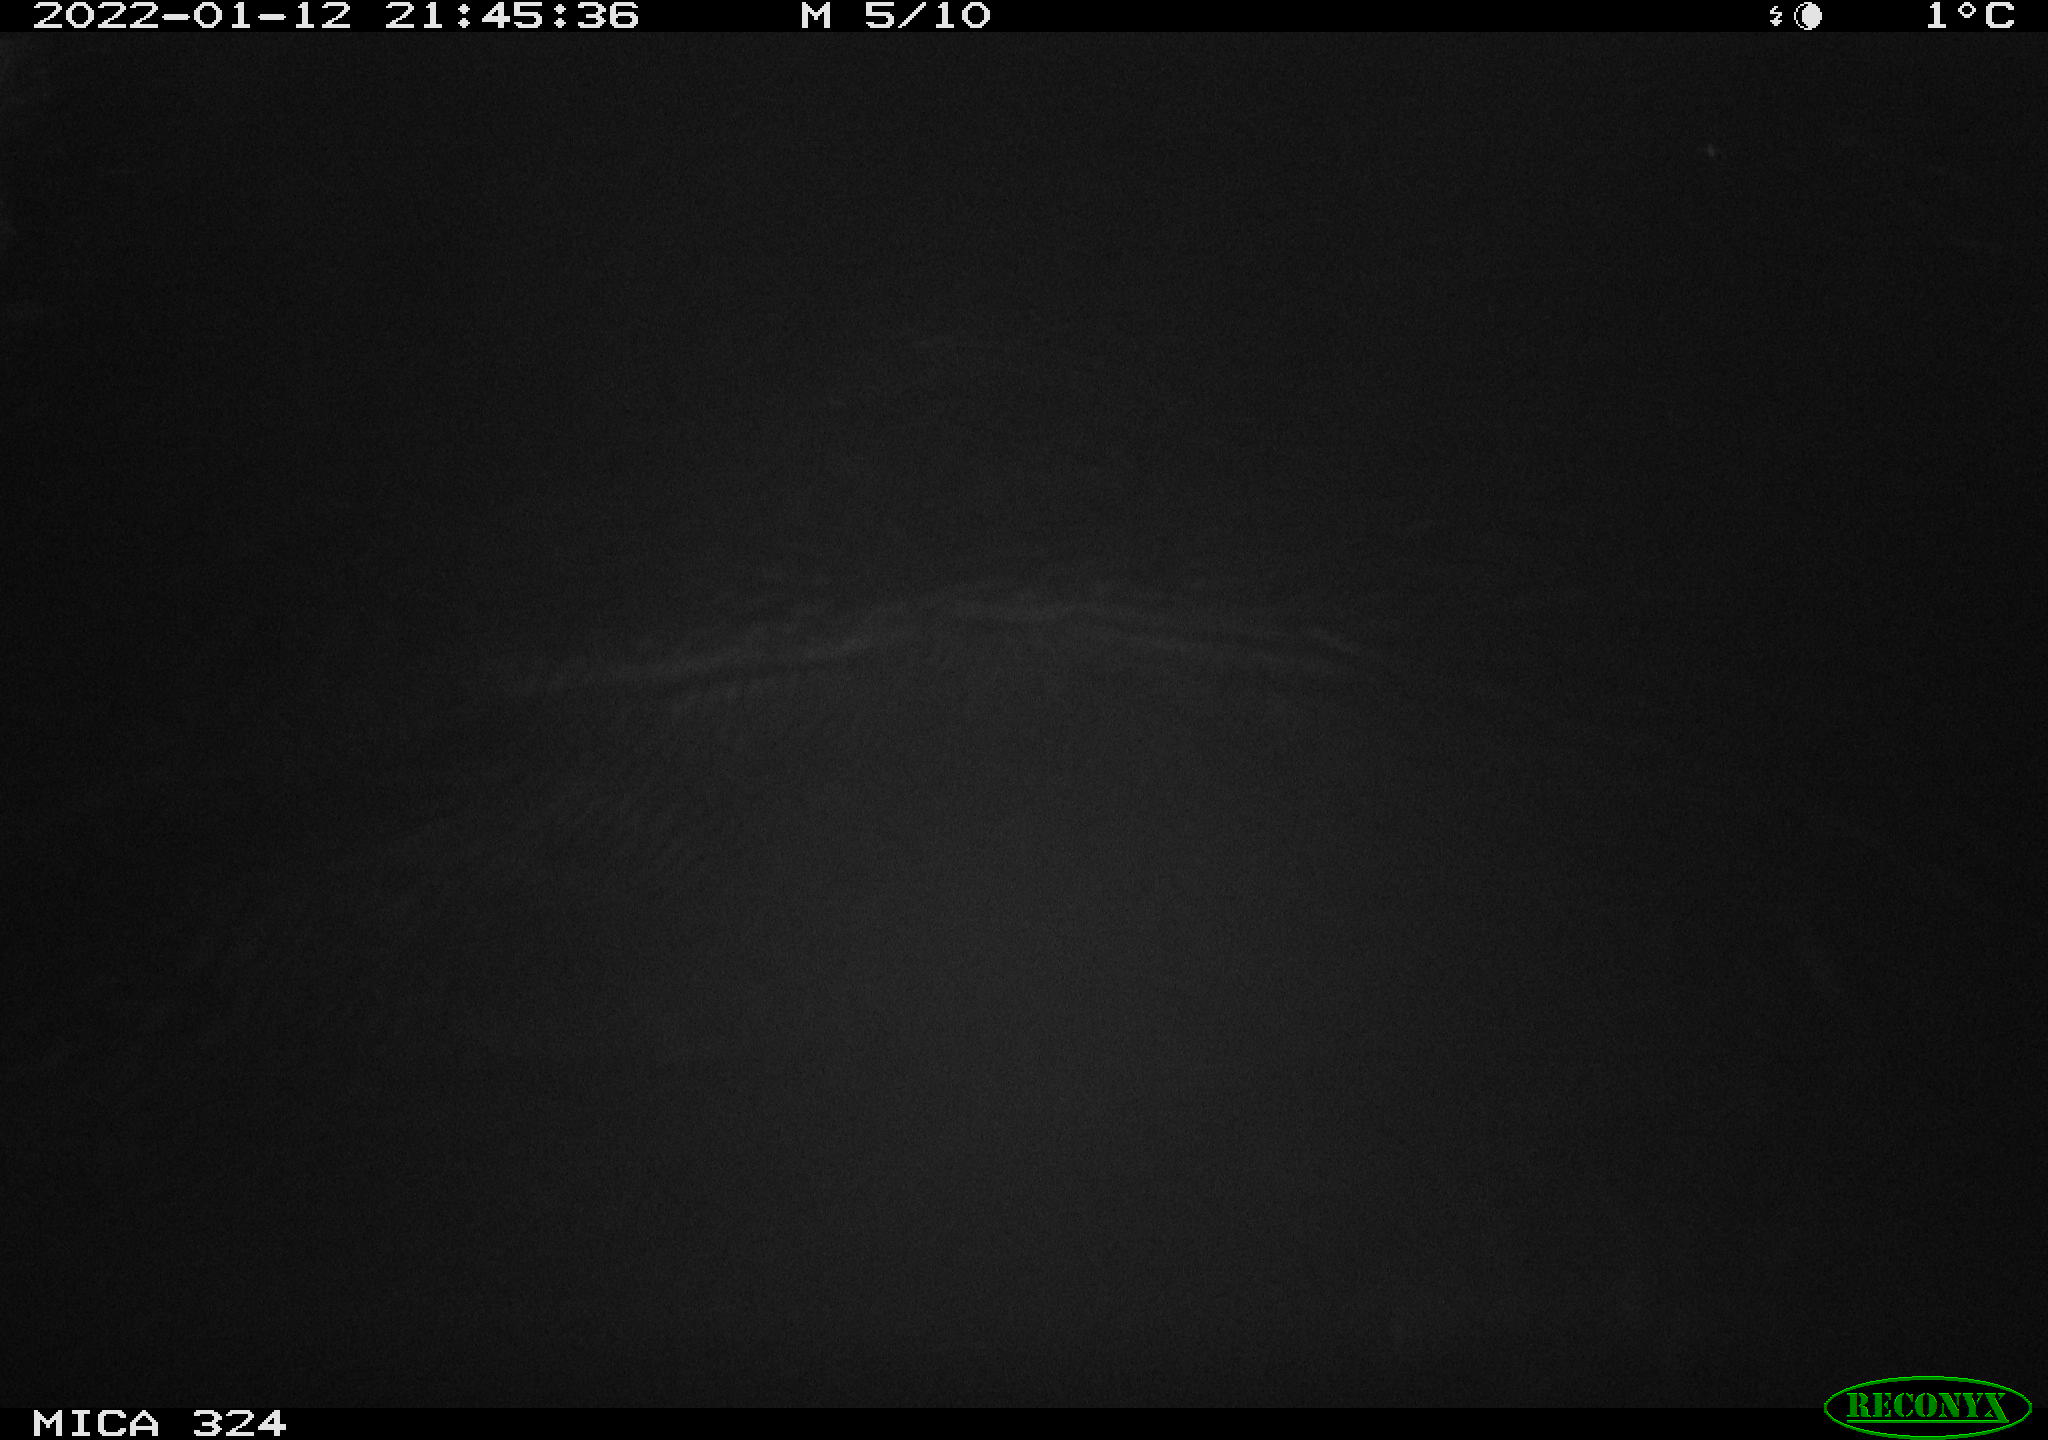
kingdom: Animalia
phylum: Chordata
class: Mammalia
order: Rodentia
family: Cricetidae
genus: Ondatra
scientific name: Ondatra zibethicus
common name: Muskrat
